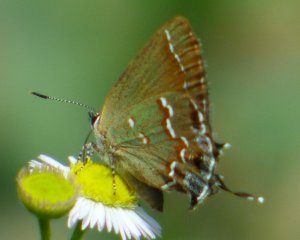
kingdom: Animalia
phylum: Arthropoda
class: Insecta
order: Lepidoptera
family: Lycaenidae
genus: Mitoura
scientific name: Mitoura gryneus
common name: Juniper Hairstreak
